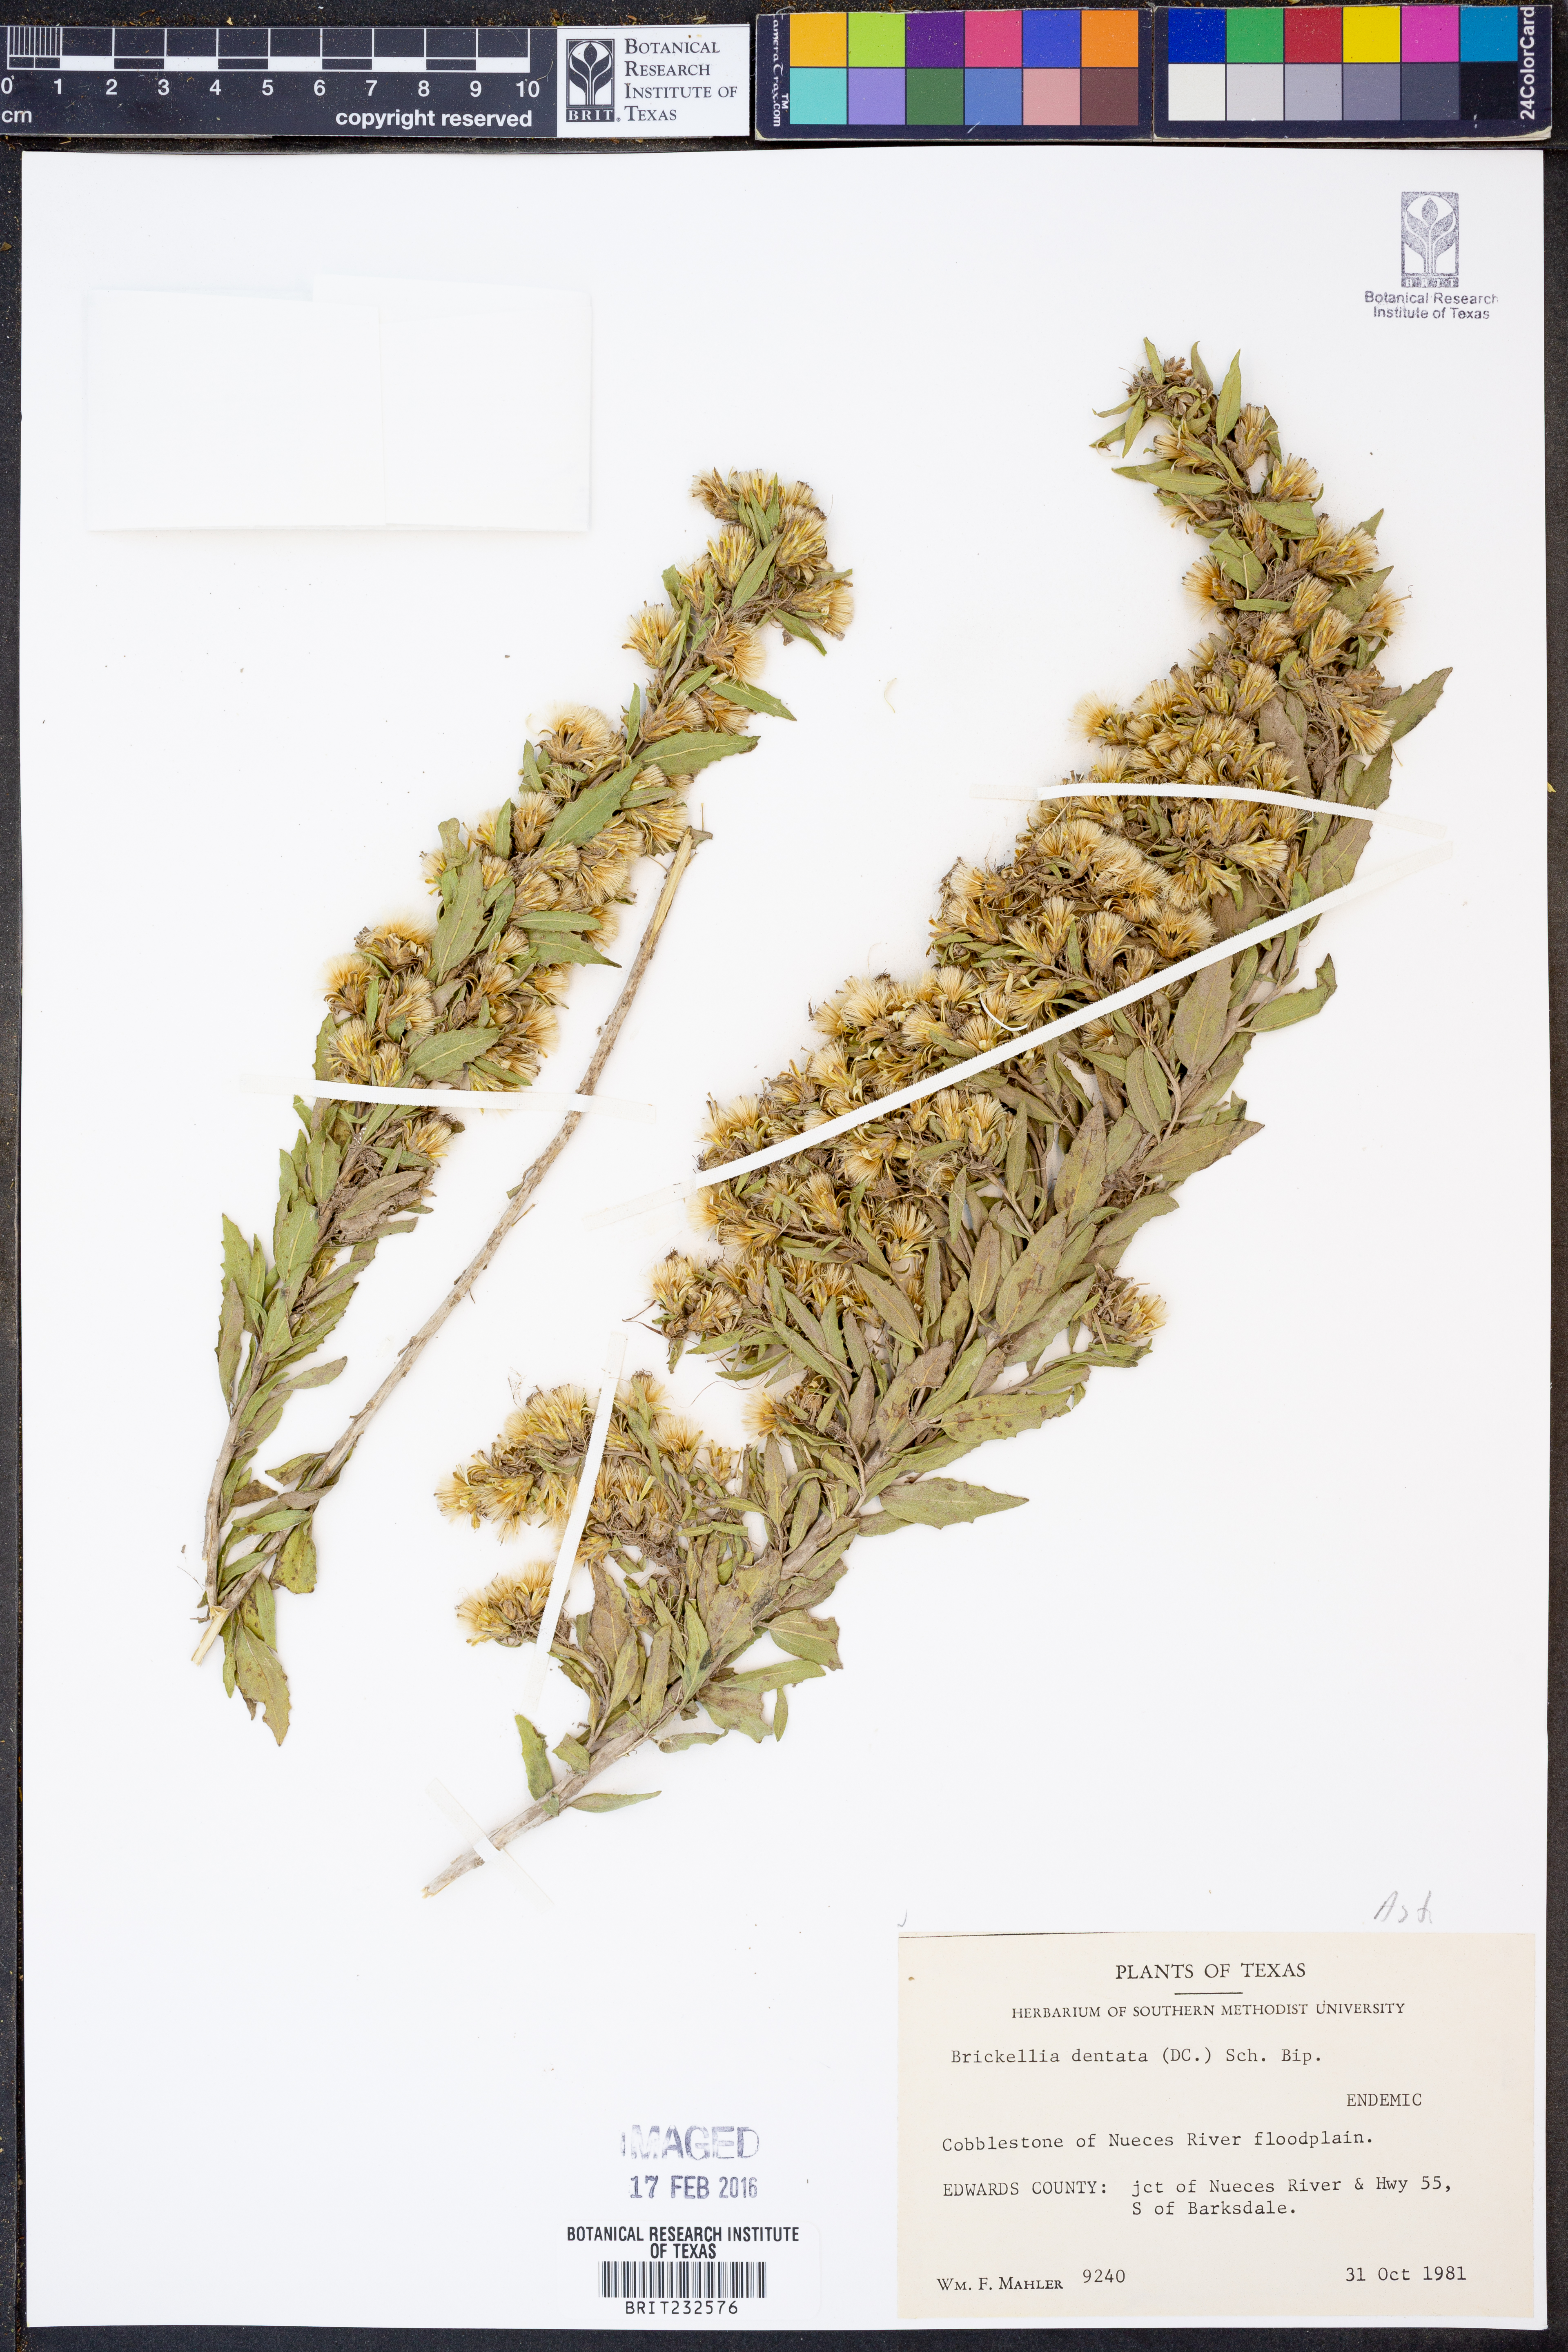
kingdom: Plantae
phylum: Tracheophyta
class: Magnoliopsida
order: Asterales
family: Asteraceae
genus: Brickellia
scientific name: Brickellia dentata
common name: Leafy brickellbush
